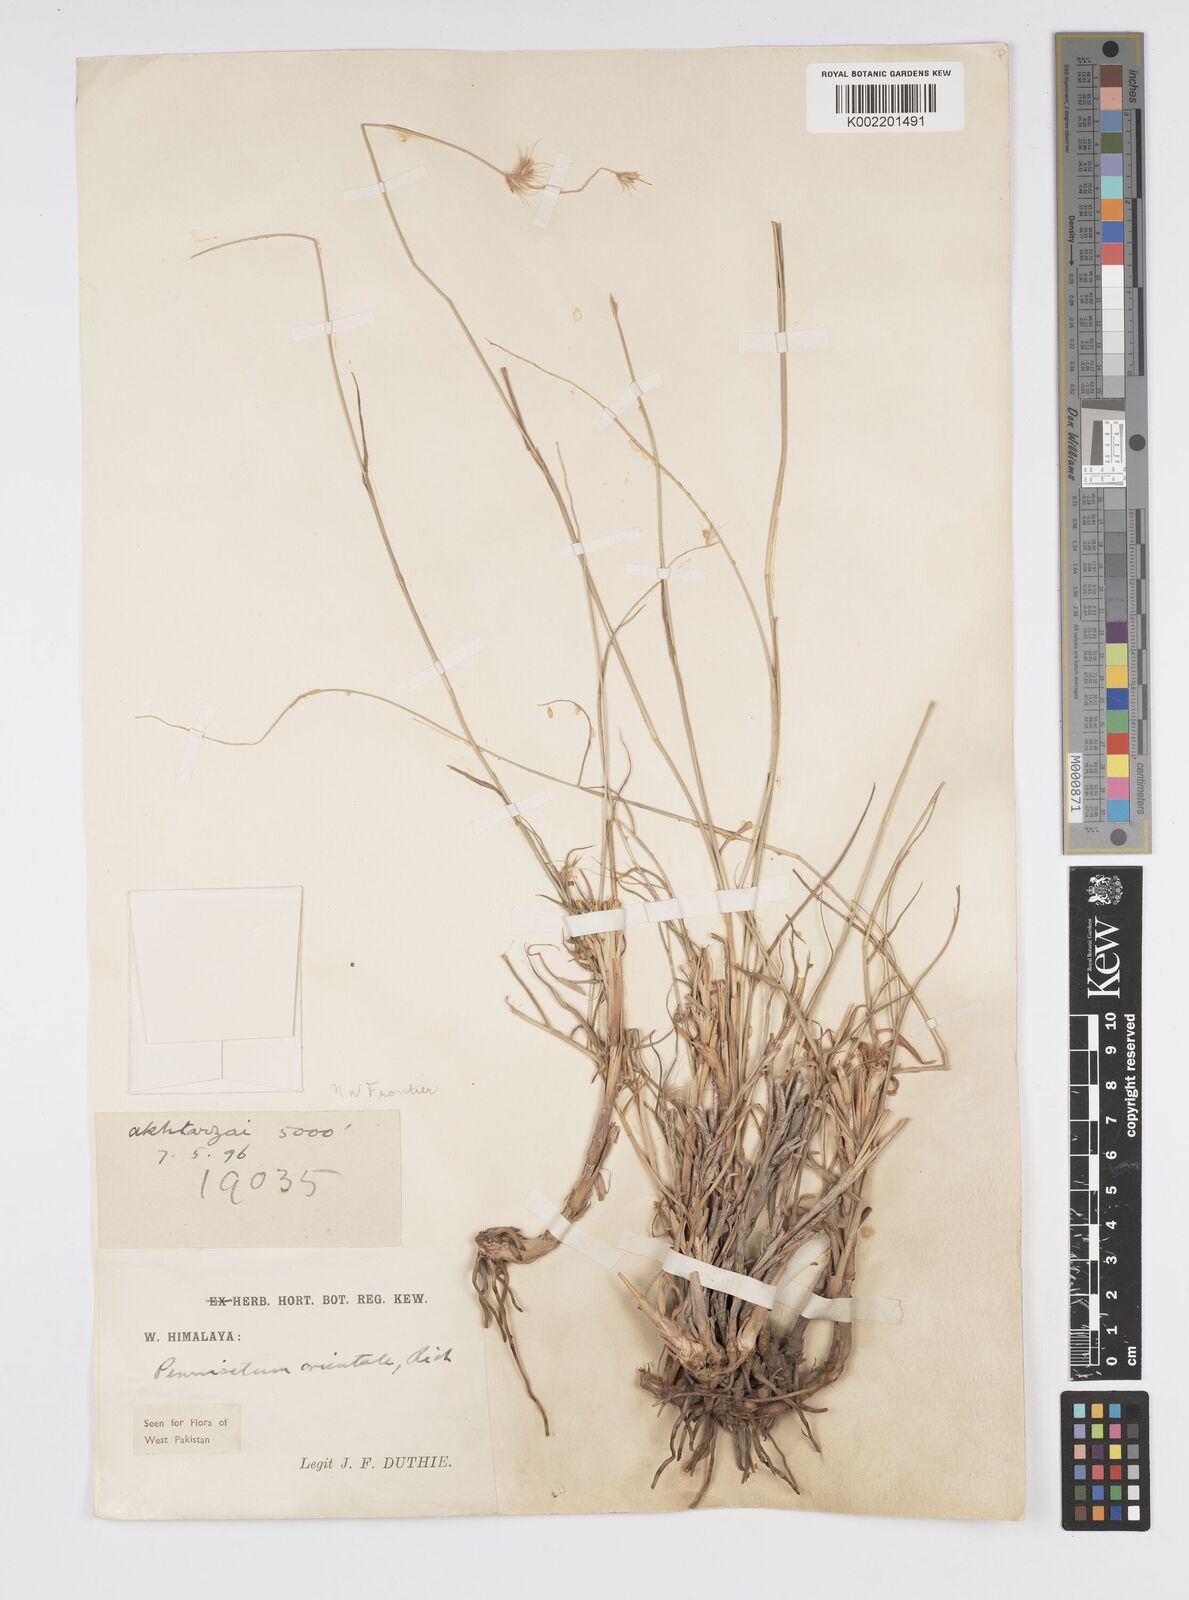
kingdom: Plantae
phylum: Tracheophyta
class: Liliopsida
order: Poales
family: Poaceae
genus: Cenchrus
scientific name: Cenchrus orientalis
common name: Oriental fountain grass
